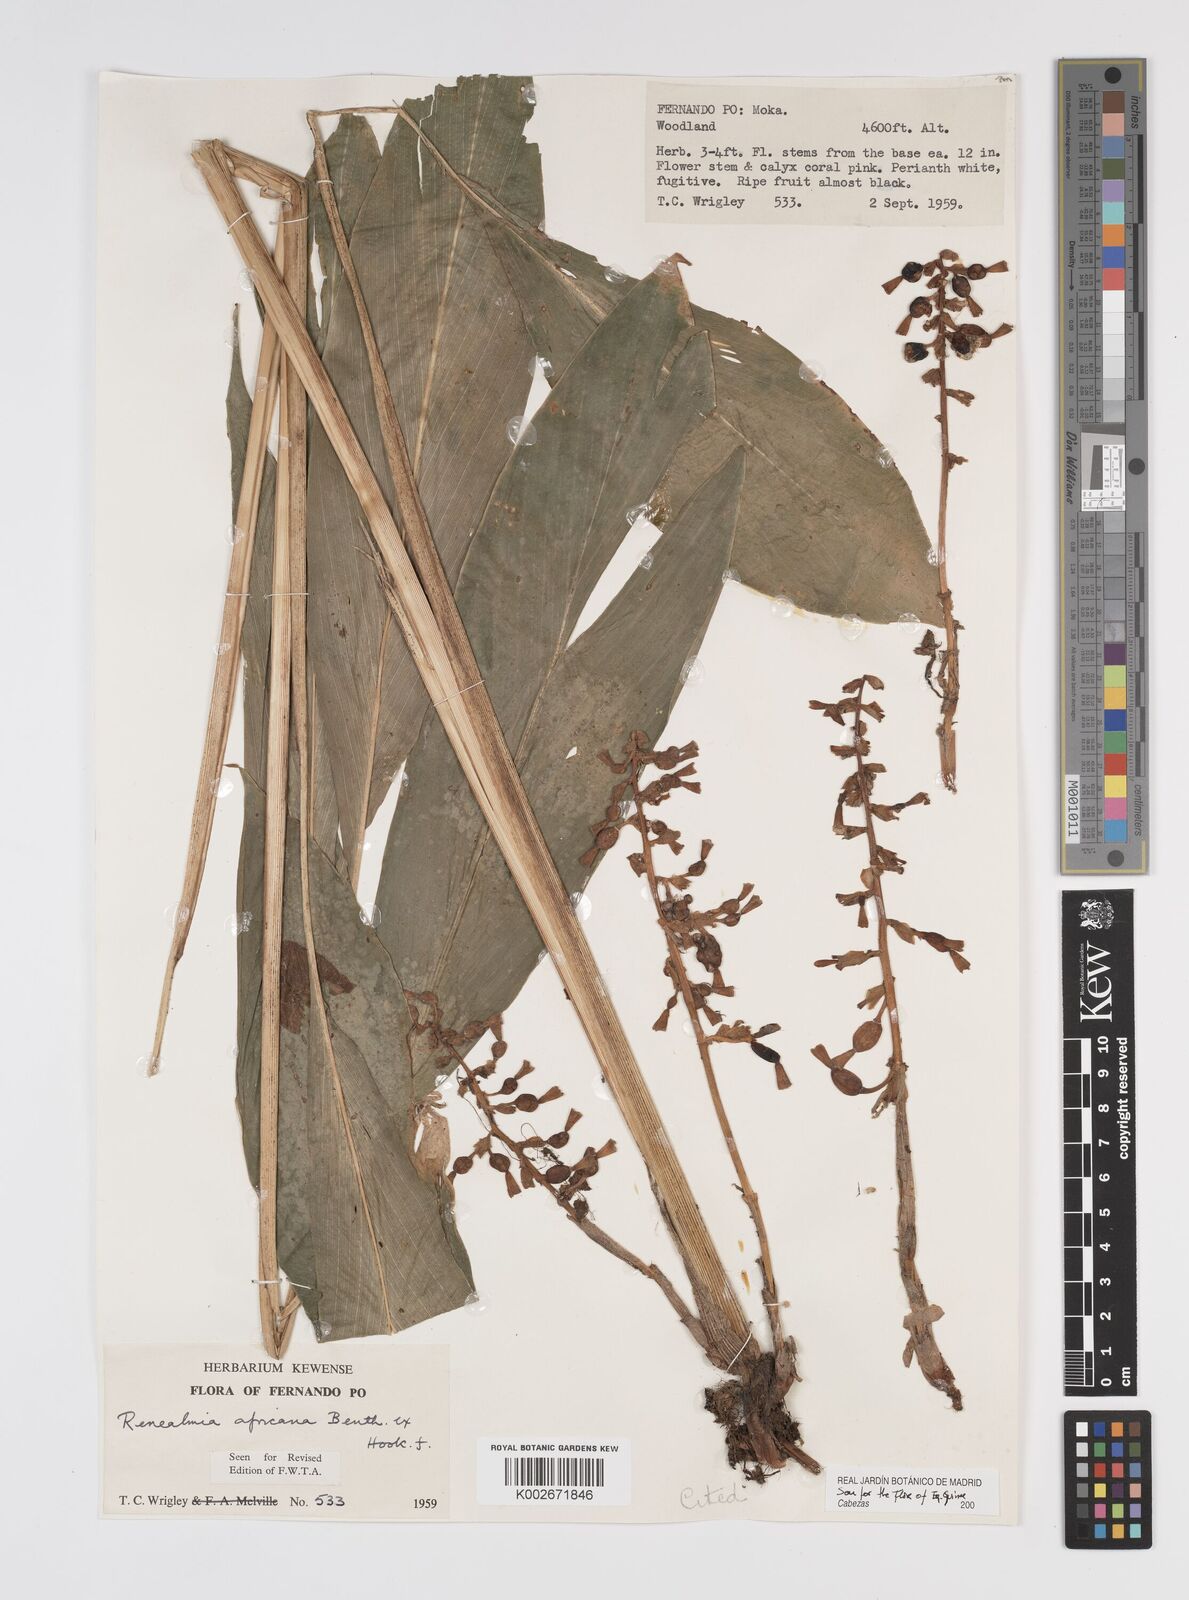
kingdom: Plantae
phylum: Tracheophyta
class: Liliopsida
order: Zingiberales
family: Zingiberaceae
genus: Renealmia
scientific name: Renealmia africana
